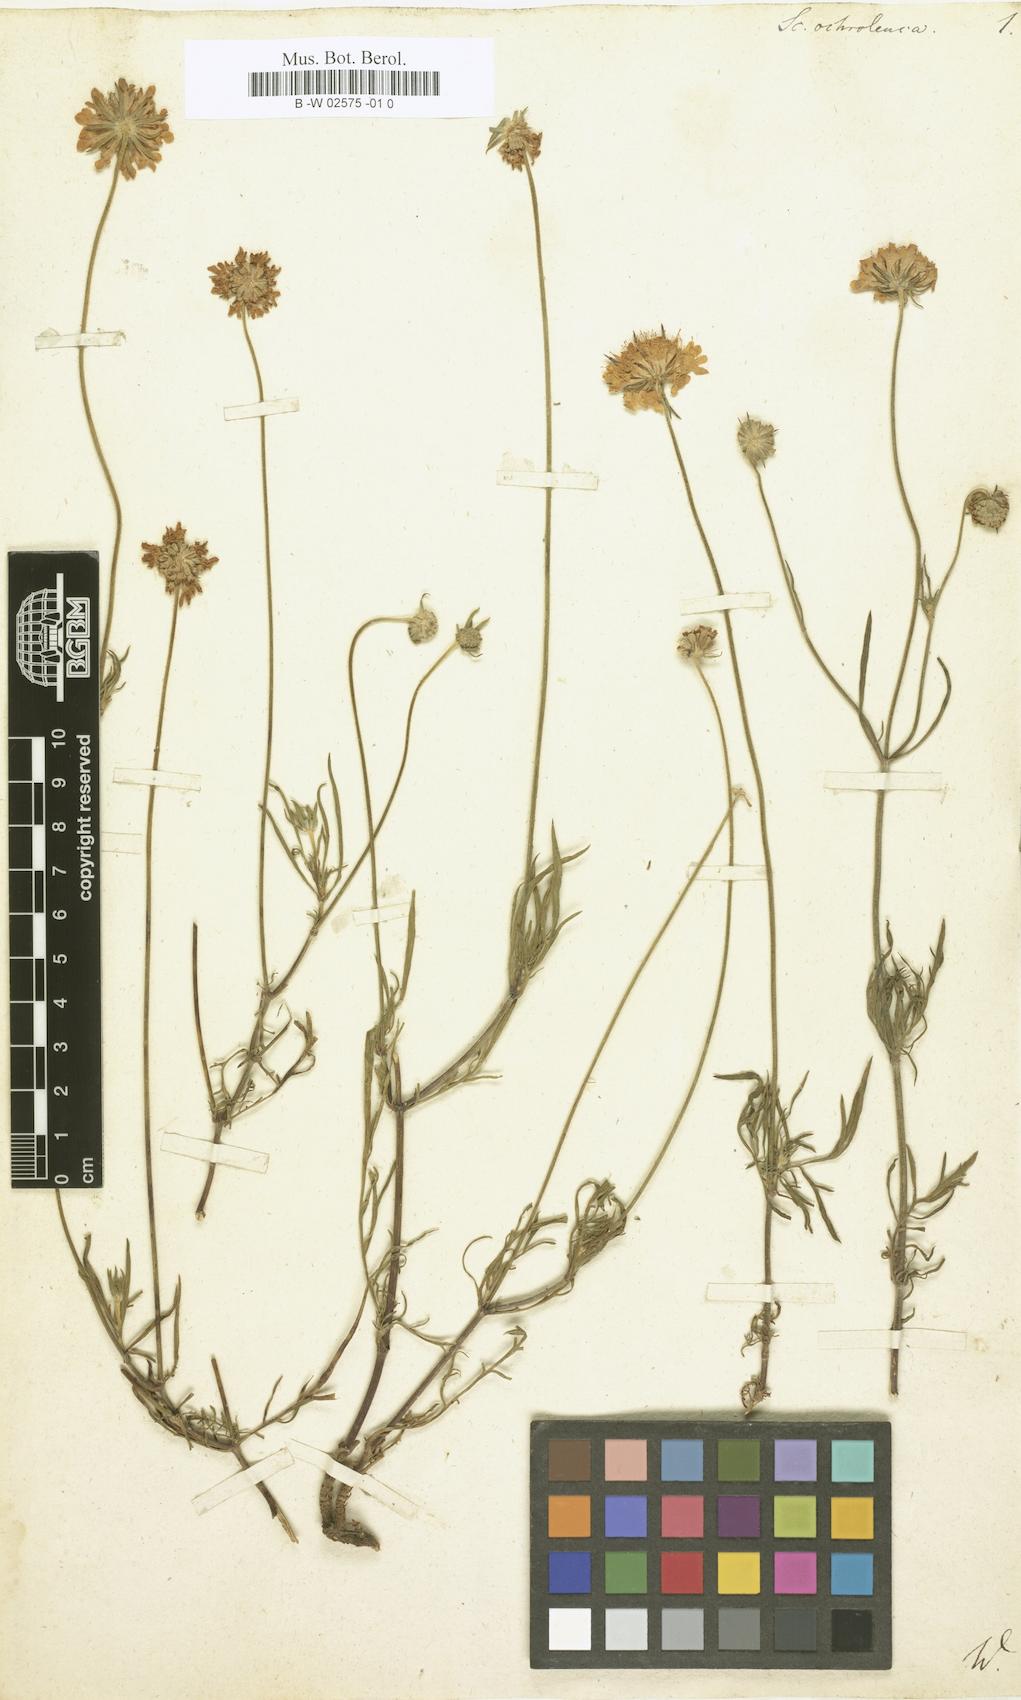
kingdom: Plantae
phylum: Tracheophyta
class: Magnoliopsida
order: Dipsacales
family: Caprifoliaceae
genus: Scabiosa
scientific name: Scabiosa ochroleuca
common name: Cream pincushions
